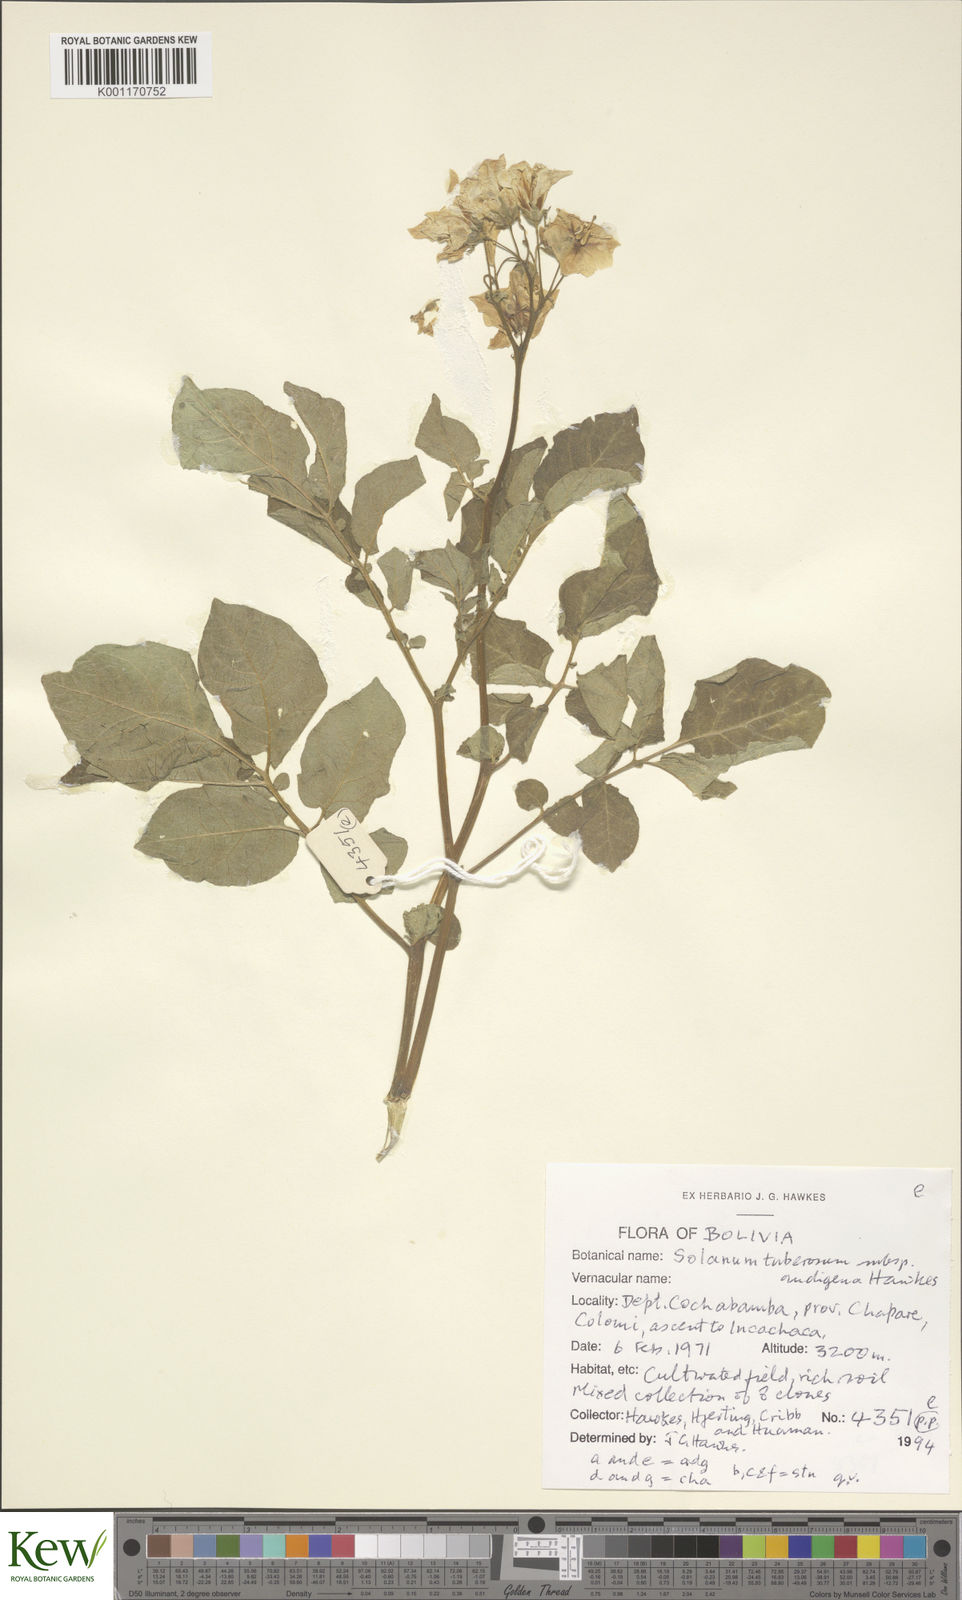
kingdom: Plantae
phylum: Tracheophyta
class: Magnoliopsida
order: Solanales
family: Solanaceae
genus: Solanum
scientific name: Solanum tuberosum
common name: Potato
